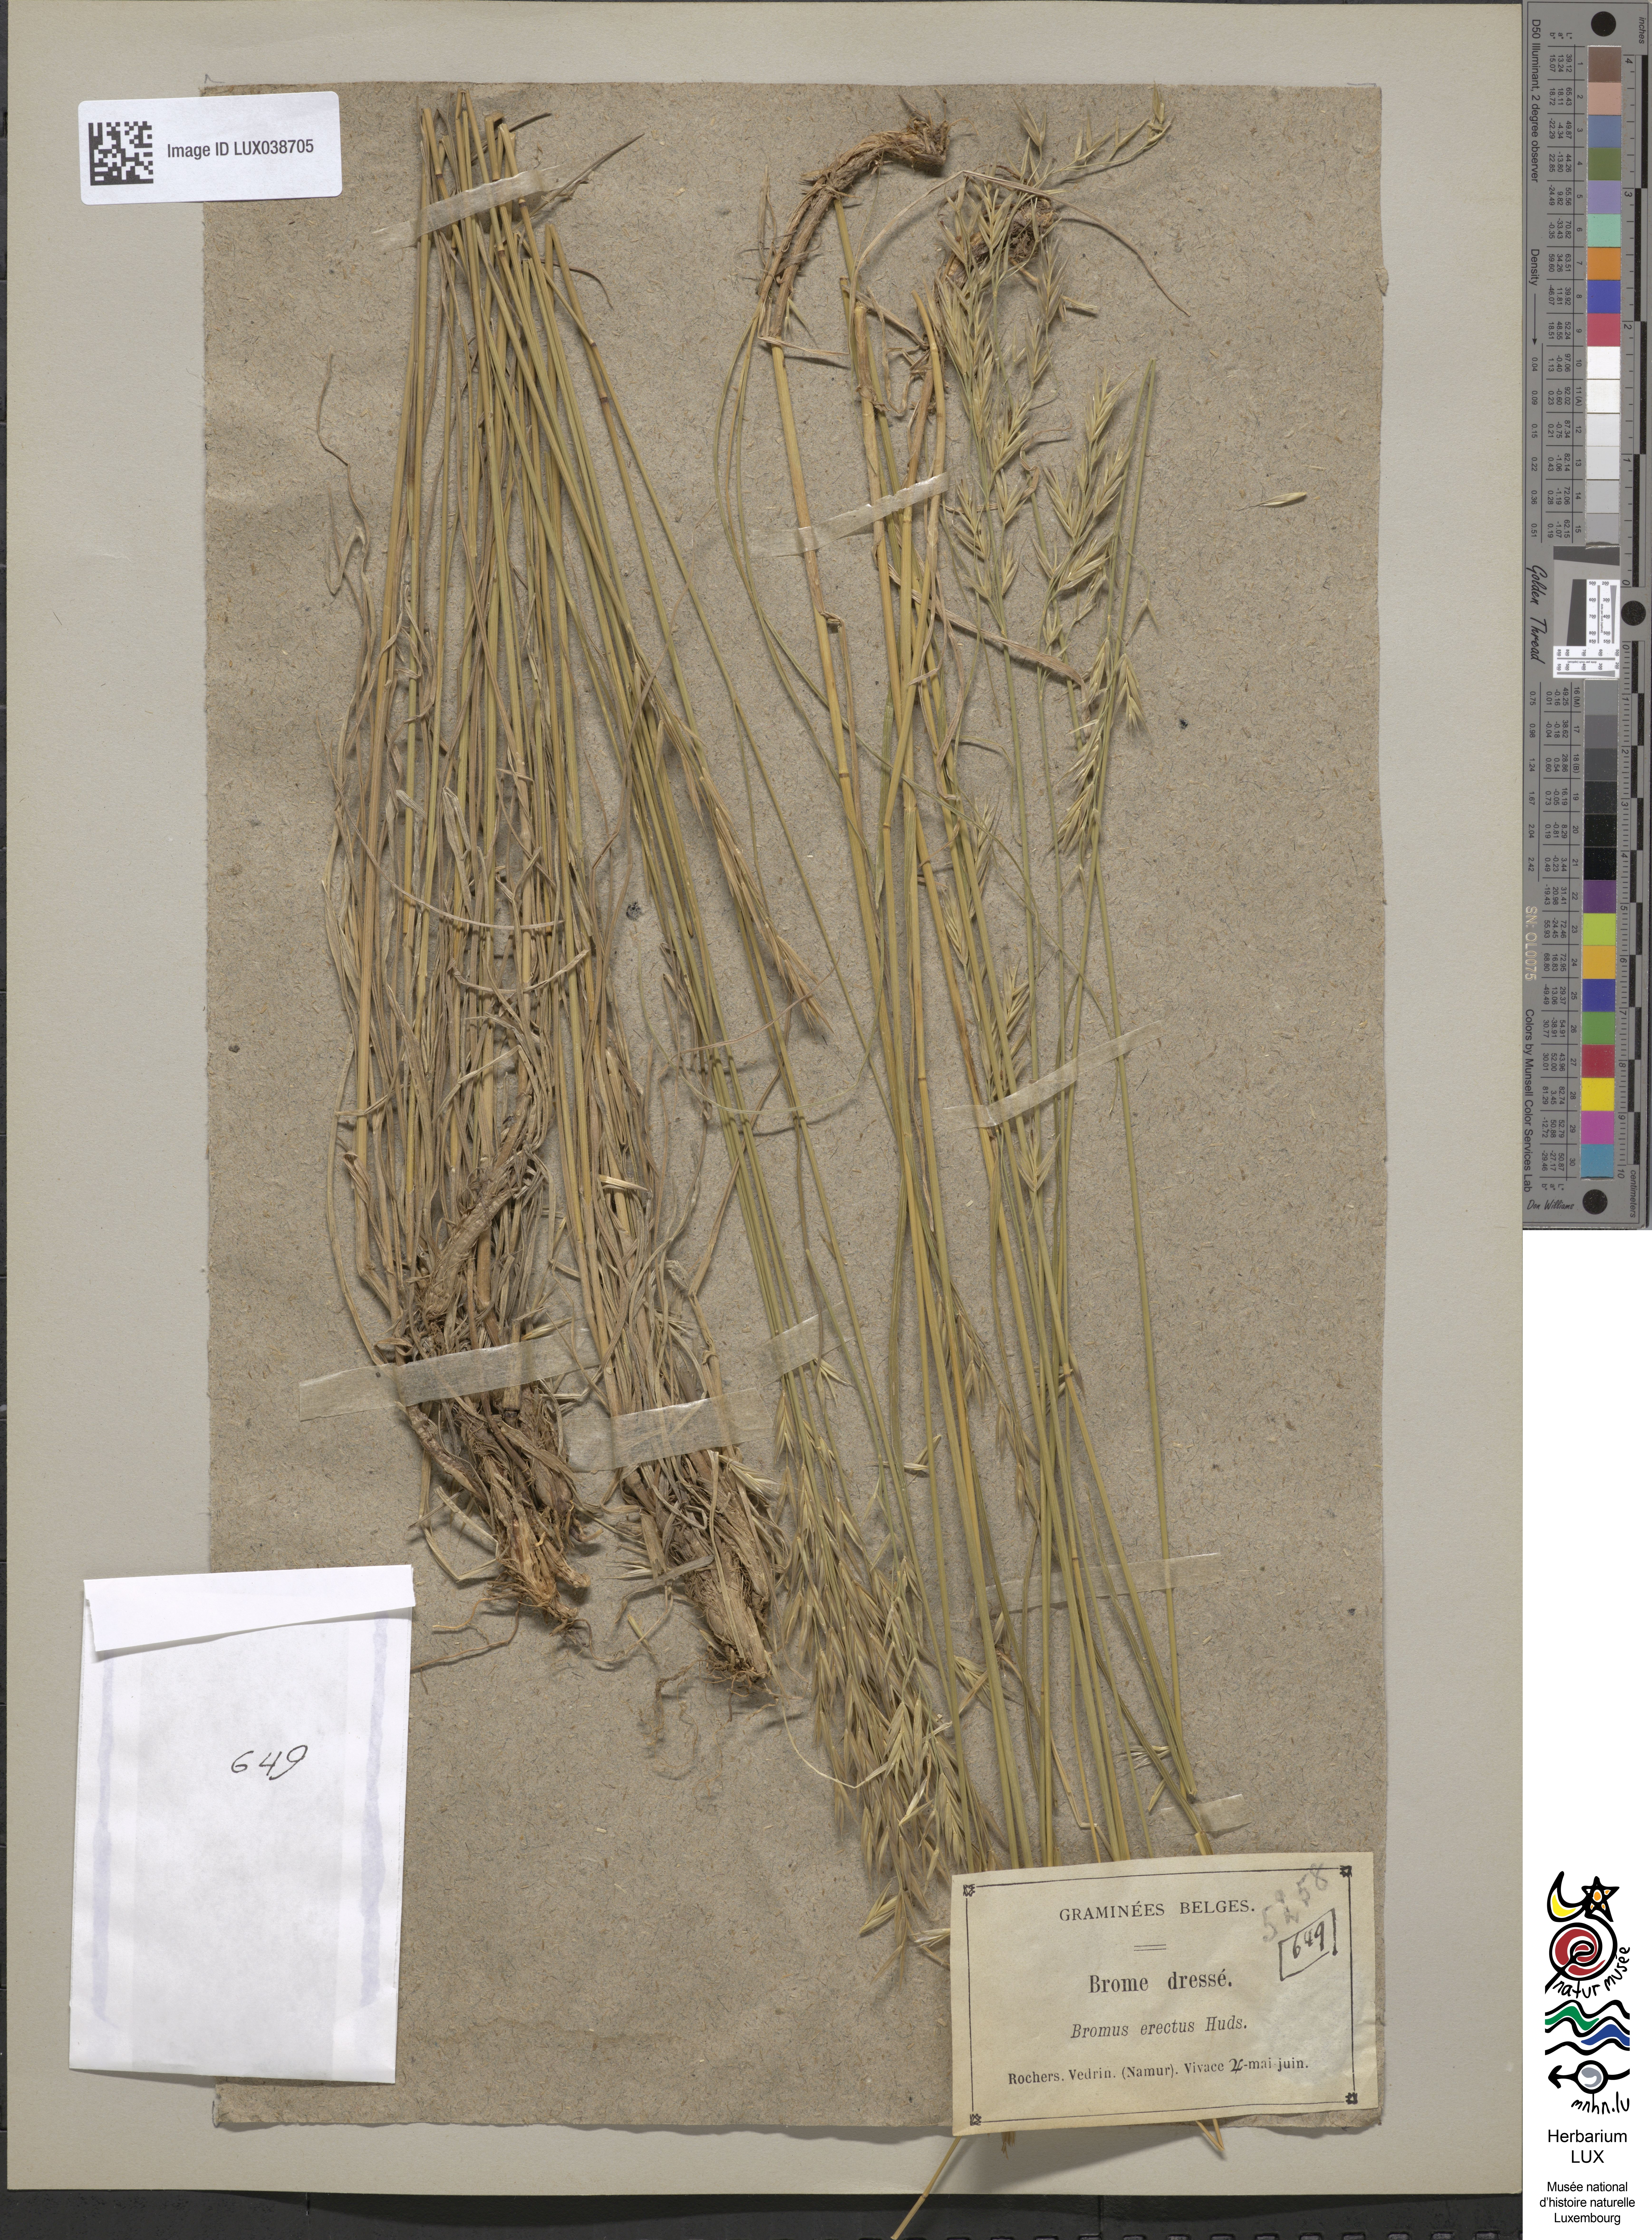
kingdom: Plantae
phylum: Tracheophyta
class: Liliopsida
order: Poales
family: Poaceae
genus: Bromus
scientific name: Bromus erectus
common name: Erect brome
